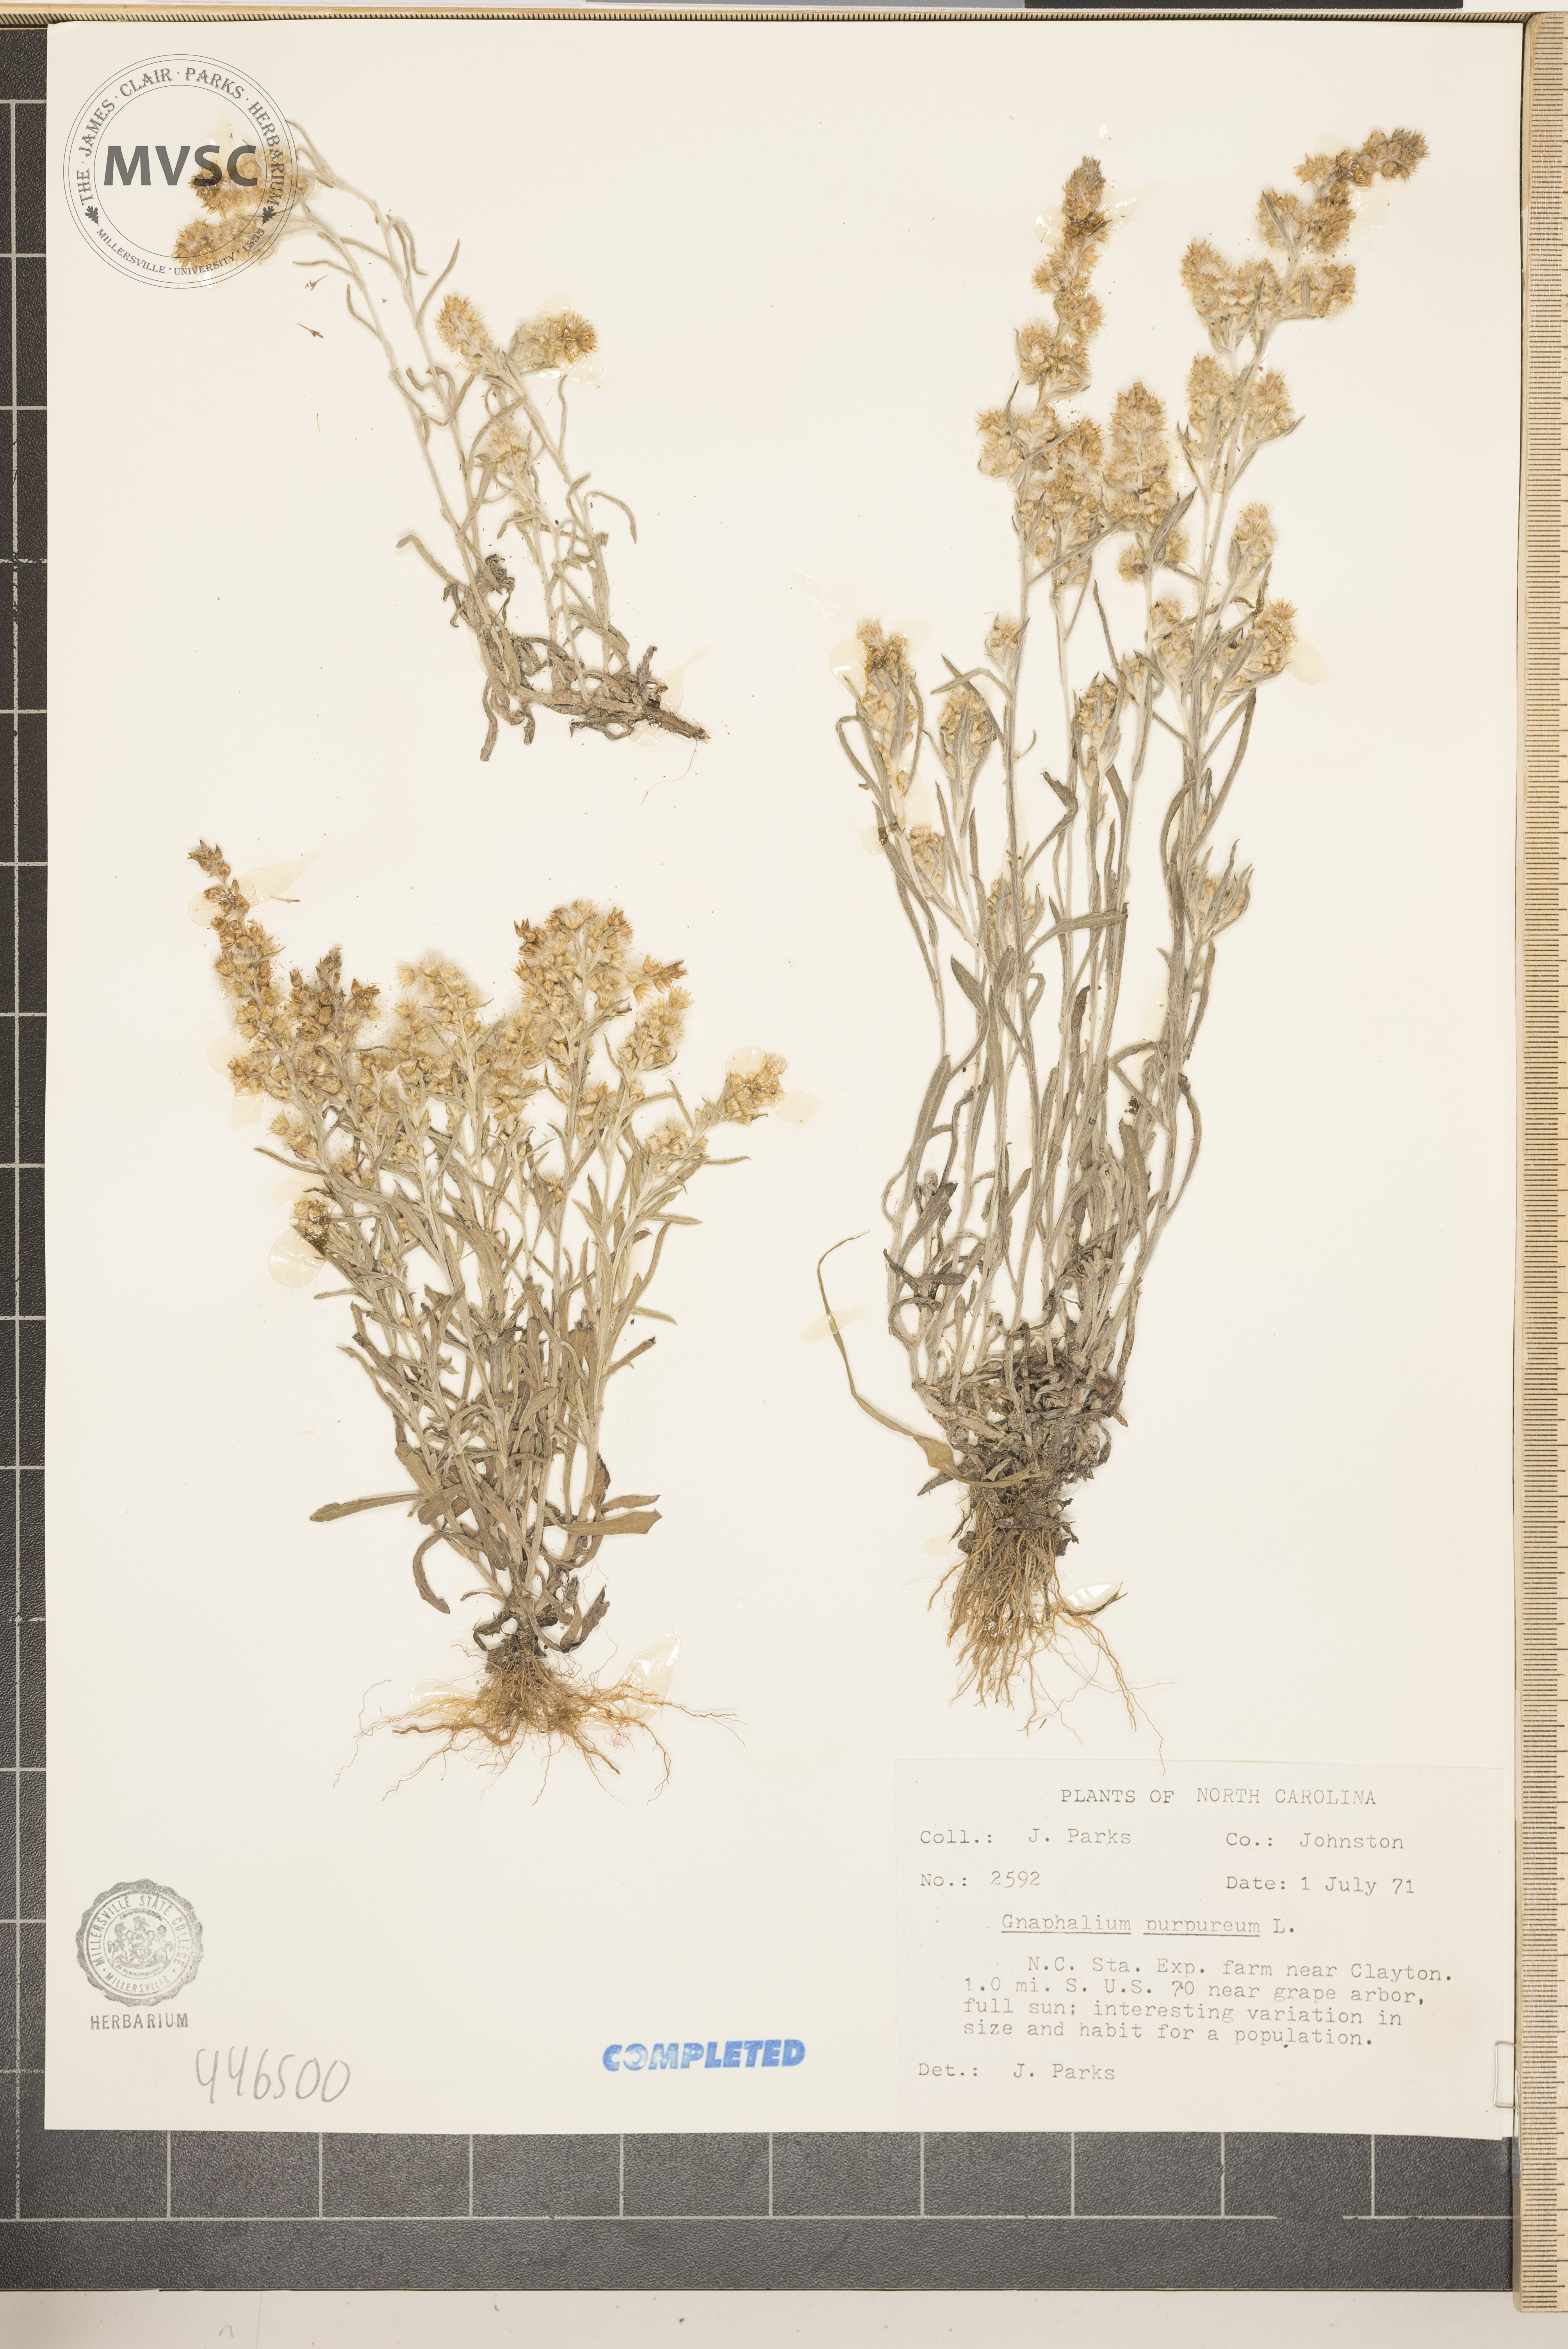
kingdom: Plantae
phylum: Tracheophyta
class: Magnoliopsida
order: Asterales
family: Asteraceae
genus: Gamochaeta
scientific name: Gamochaeta purpurea
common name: Purple cudweed
